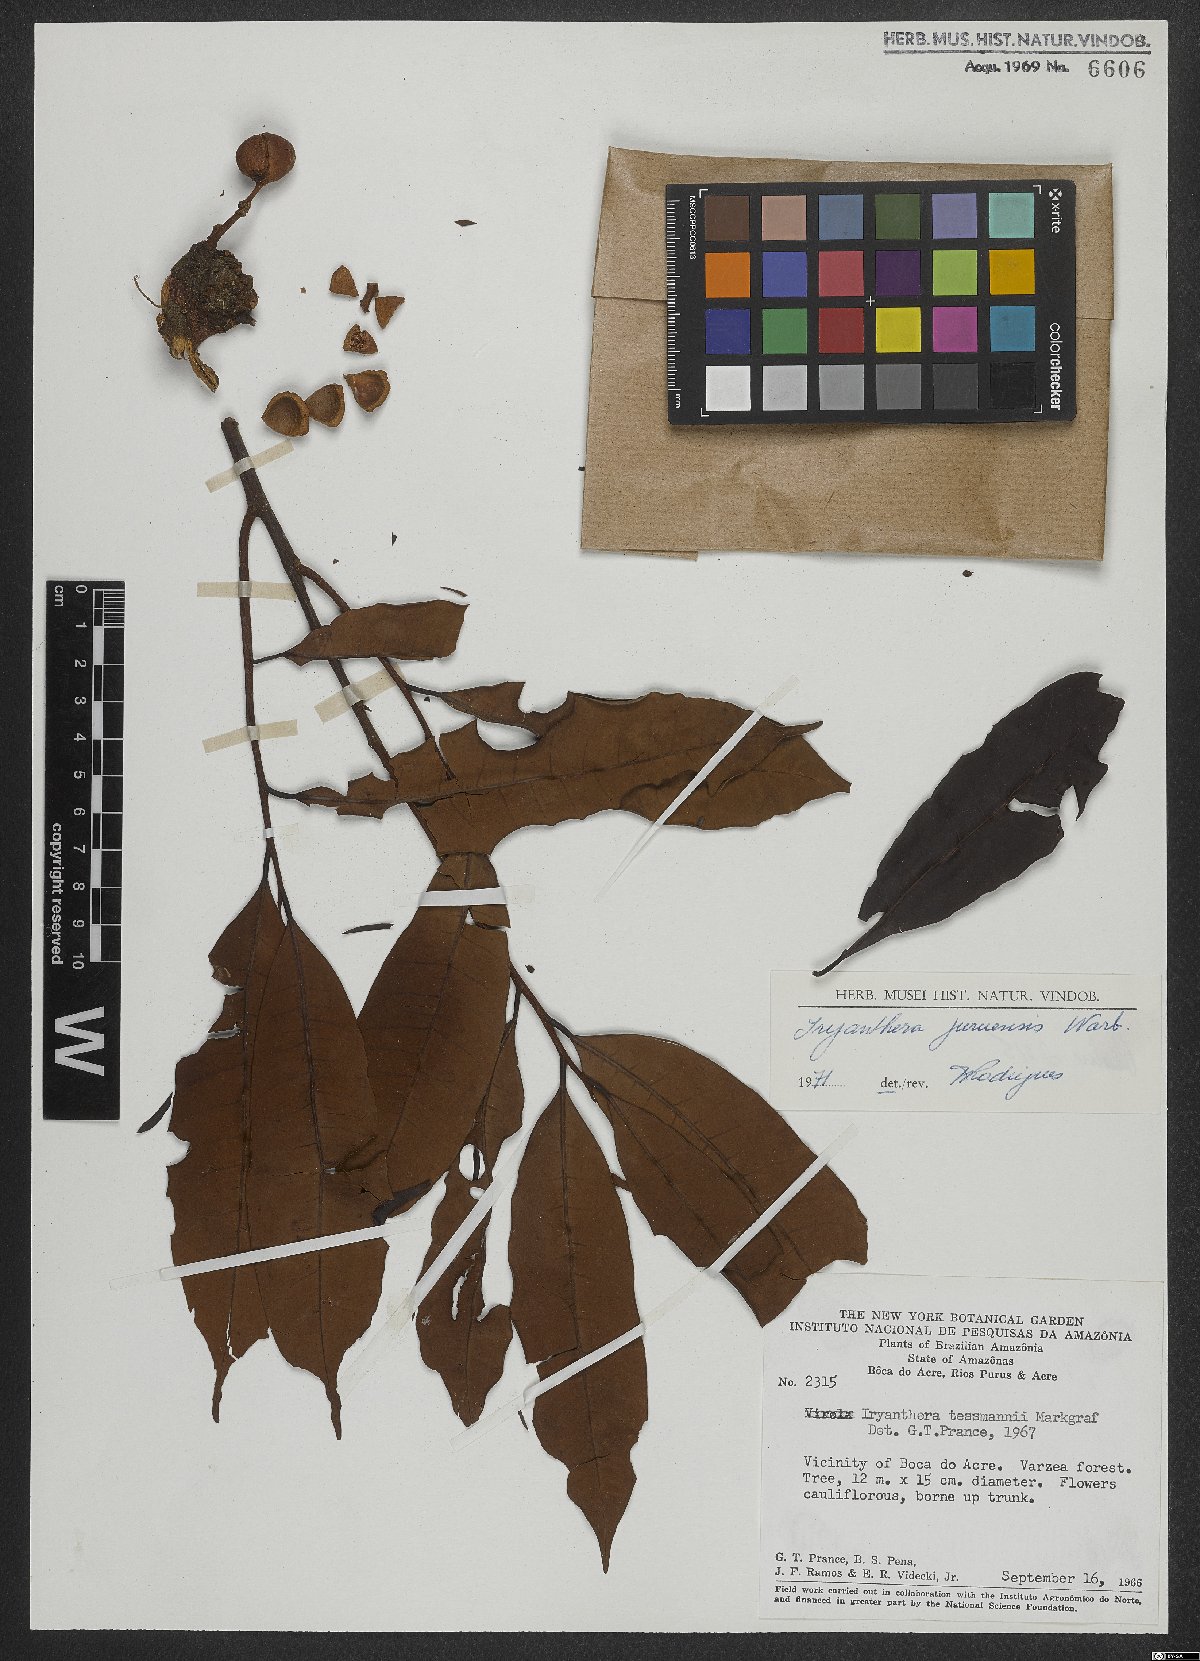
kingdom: Plantae
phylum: Tracheophyta
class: Magnoliopsida
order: Magnoliales
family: Myristicaceae
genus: Iryanthera
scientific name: Iryanthera juruensis
